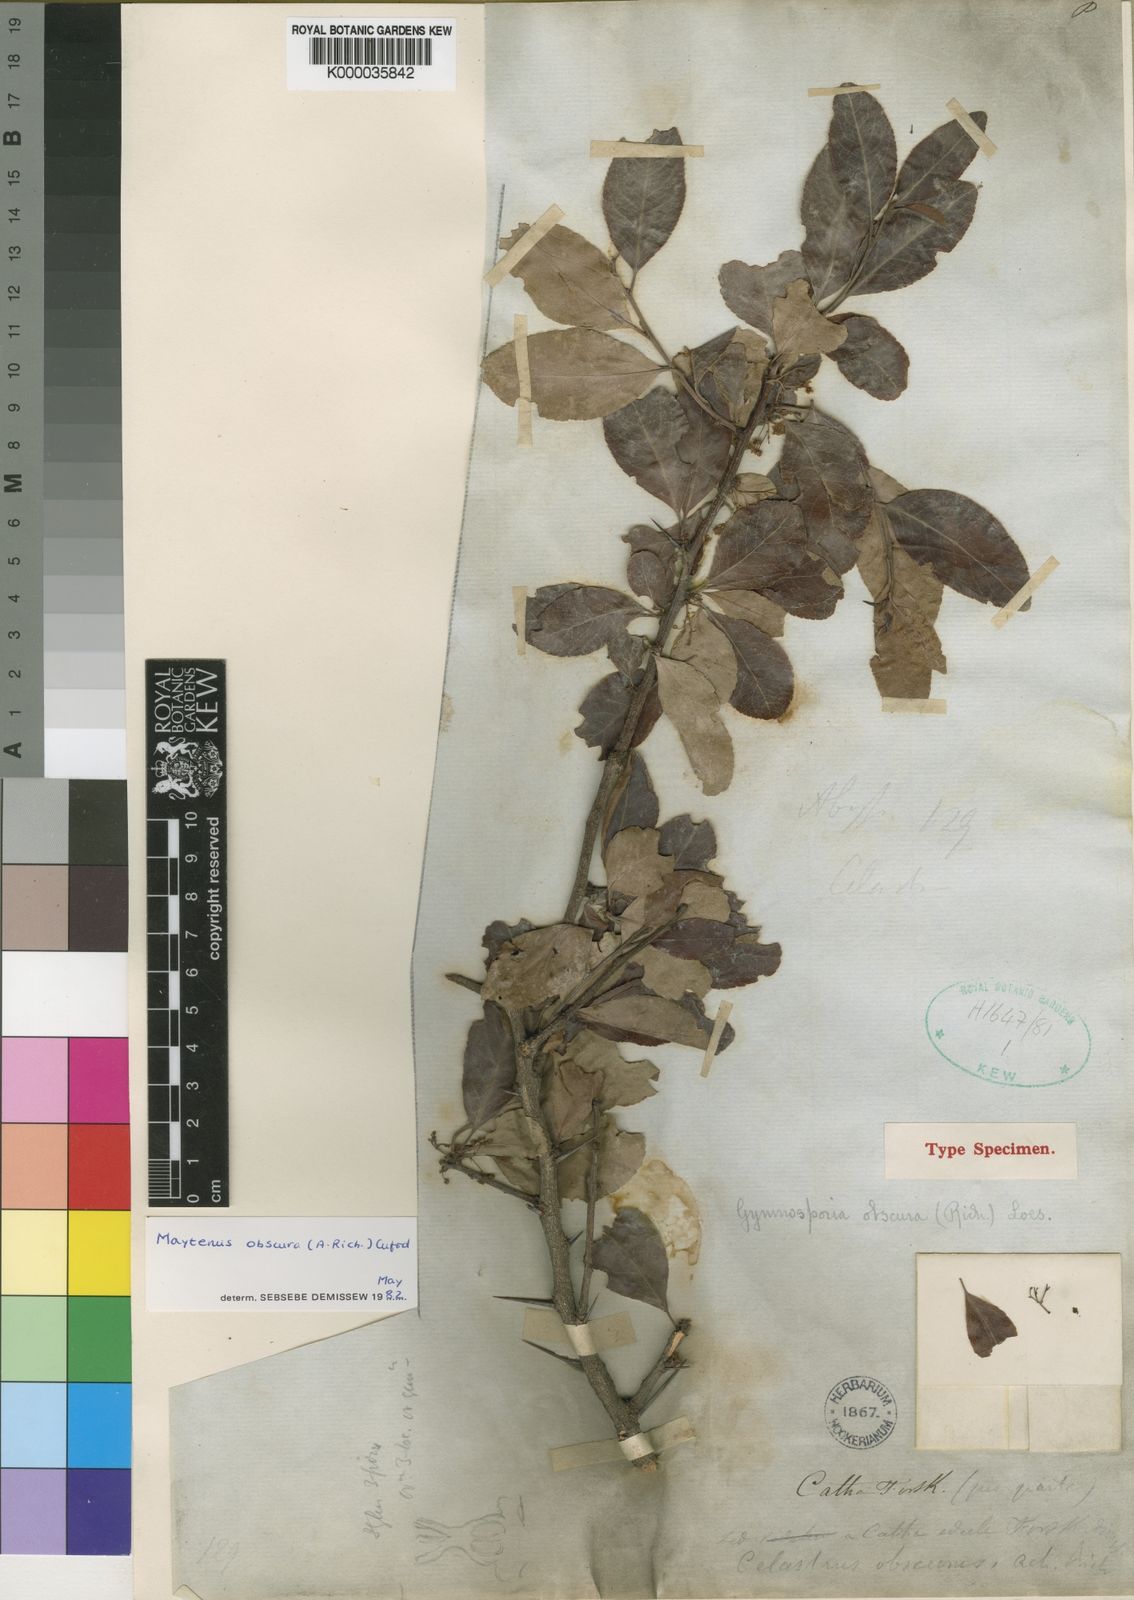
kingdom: Plantae
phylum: Tracheophyta
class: Magnoliopsida
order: Celastrales
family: Celastraceae
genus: Gymnosporia
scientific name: Gymnosporia obscura
